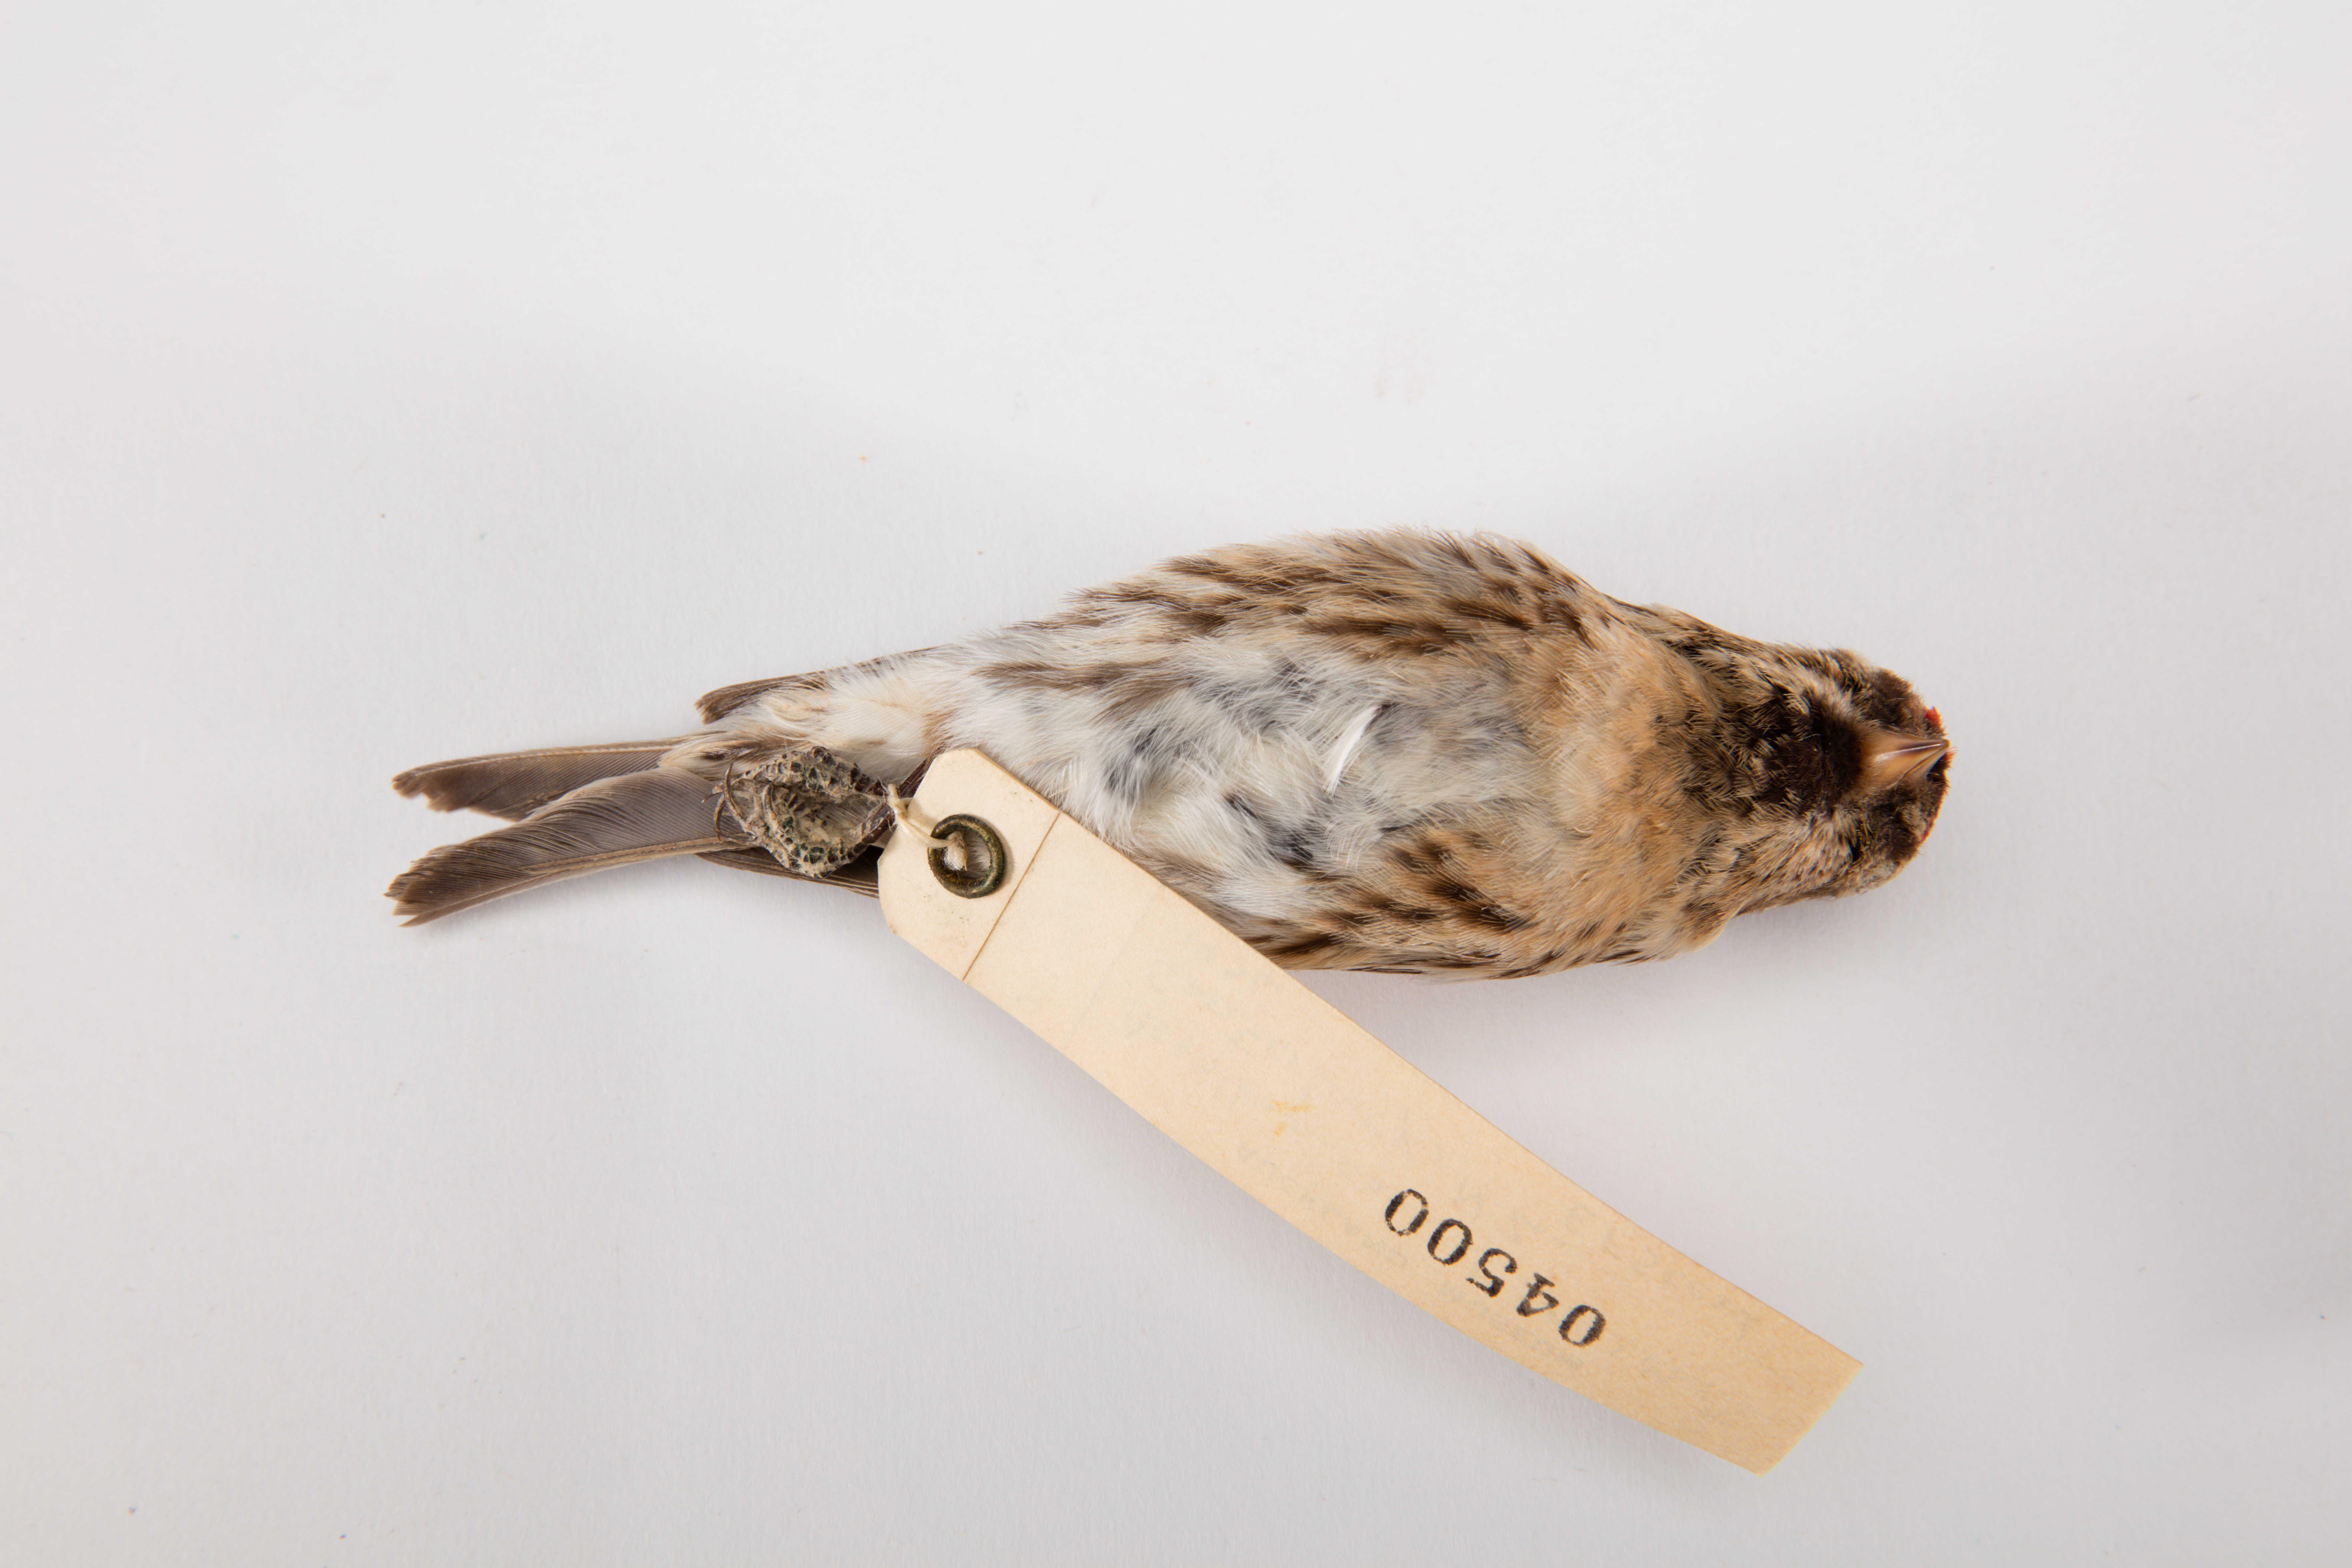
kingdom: Animalia
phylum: Chordata
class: Aves
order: Passeriformes
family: Fringillidae
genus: Acanthis
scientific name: Acanthis flammea
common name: Common redpoll
